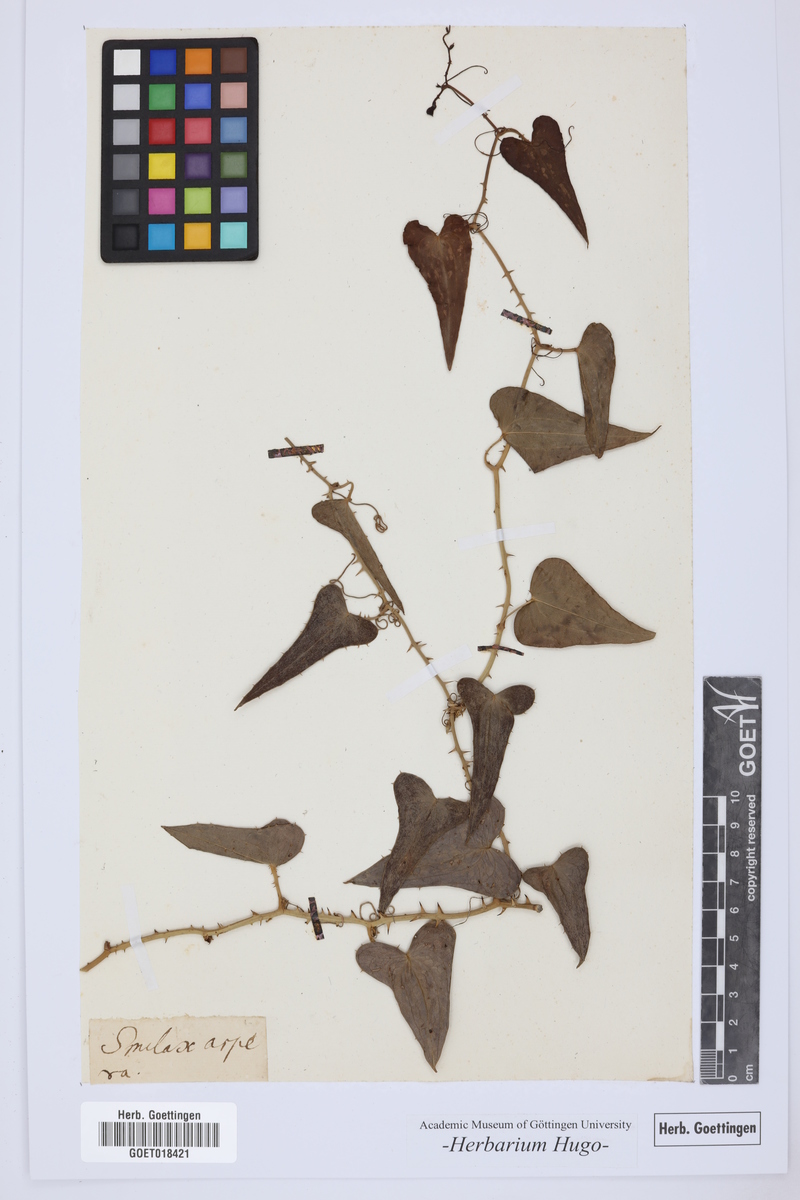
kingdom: Plantae
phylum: Tracheophyta
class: Liliopsida
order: Liliales
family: Smilacaceae
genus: Smilax
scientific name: Smilax aspera
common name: Common smilax
